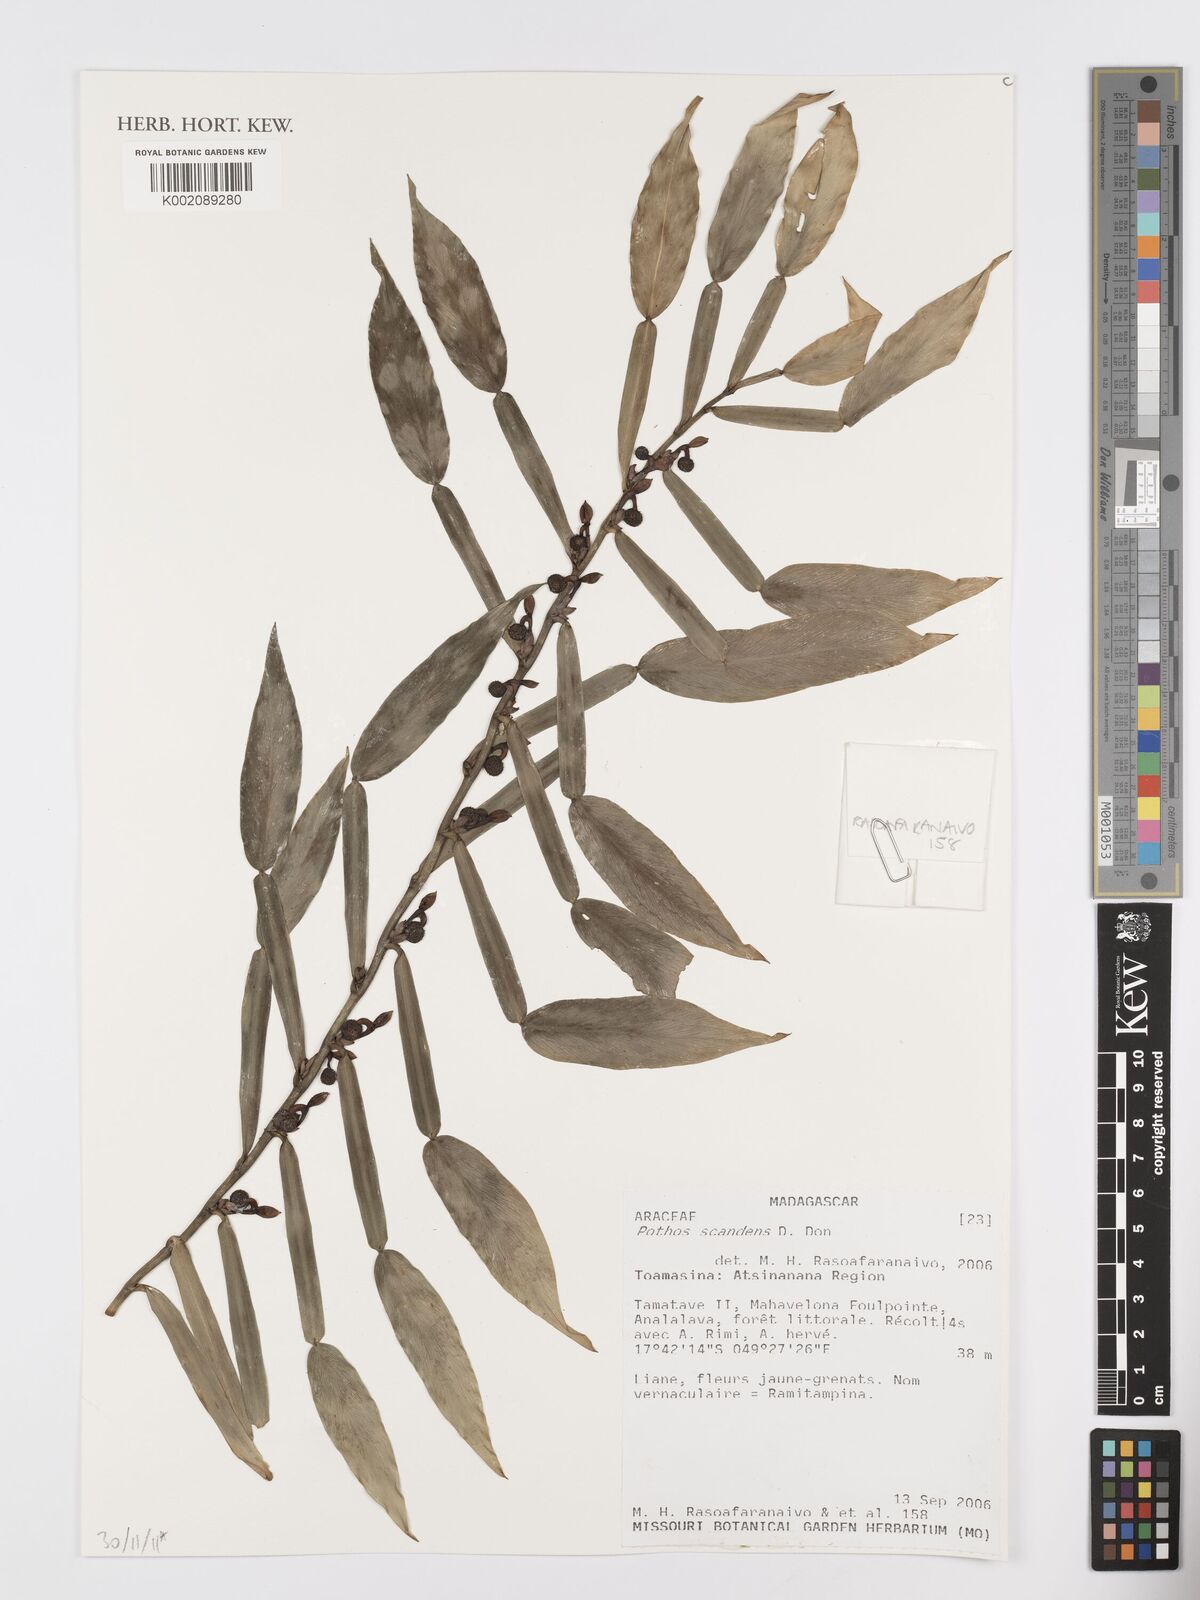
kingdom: Plantae
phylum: Tracheophyta
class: Liliopsida
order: Alismatales
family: Araceae
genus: Pothos
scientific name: Pothos scandens
